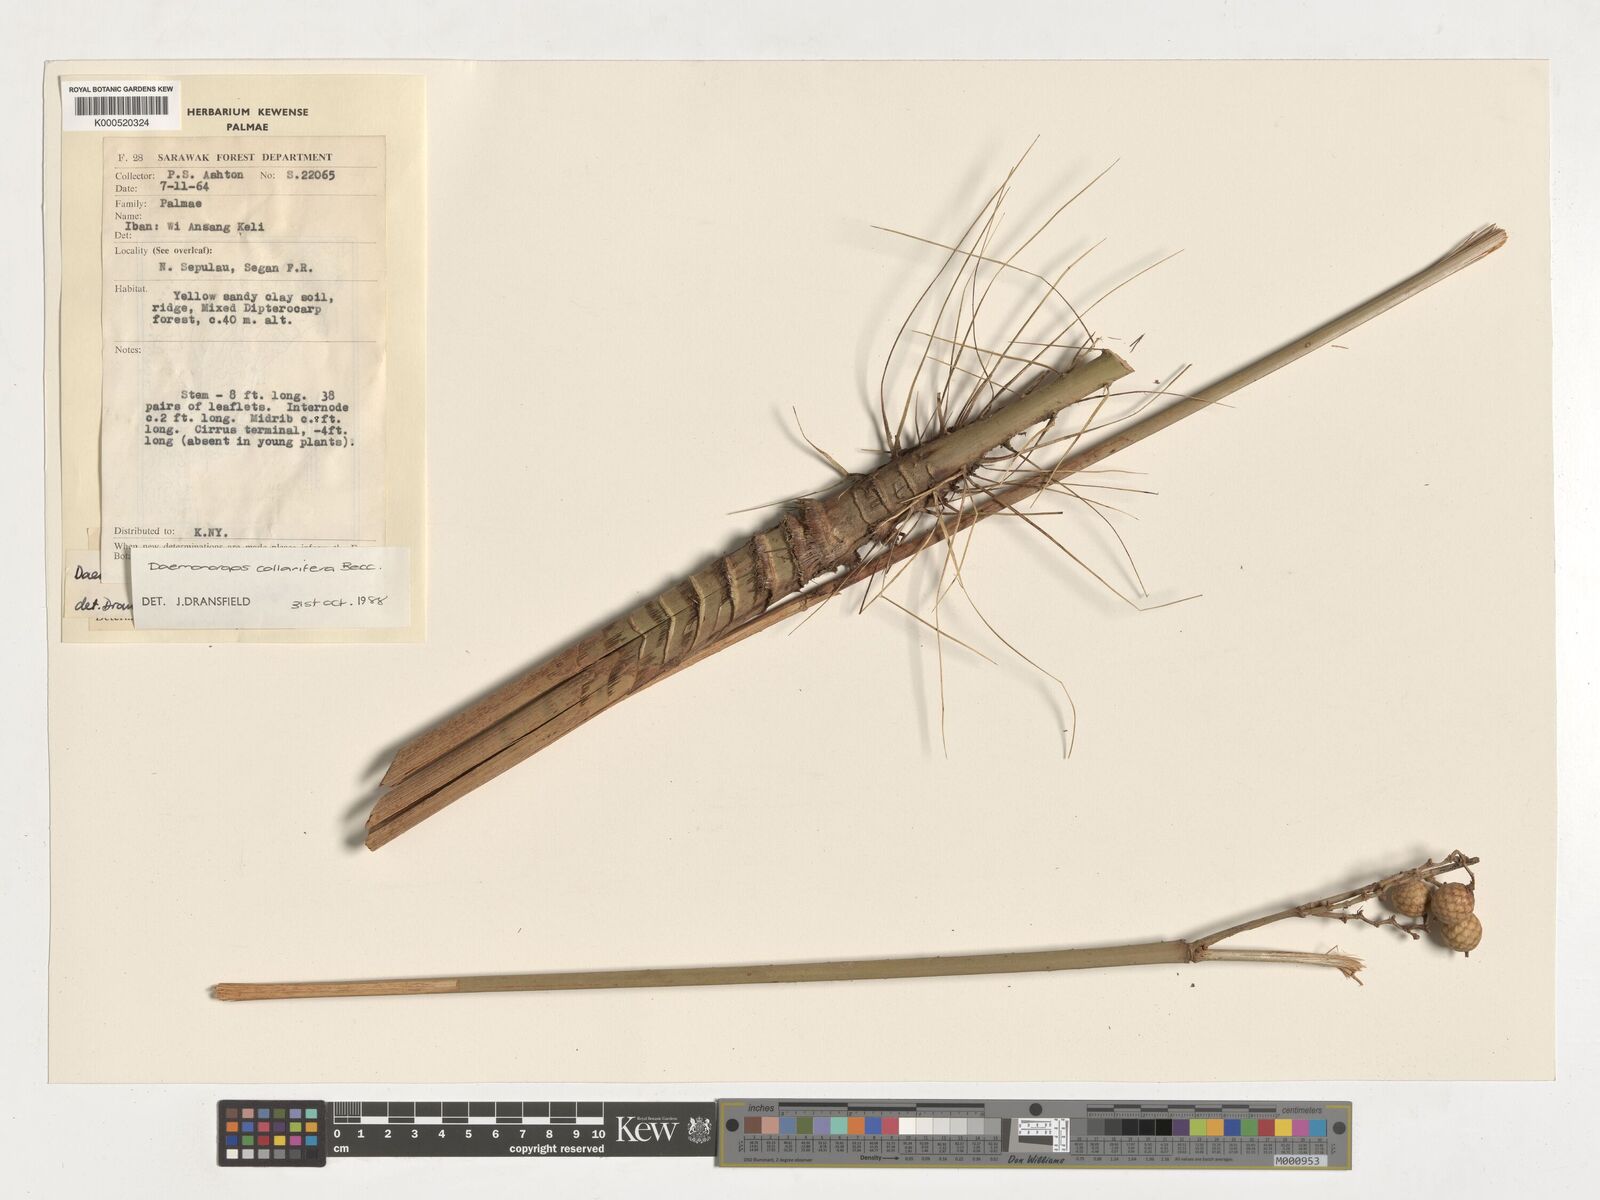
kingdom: Plantae
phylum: Tracheophyta
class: Liliopsida
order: Arecales
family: Arecaceae
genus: Calamus
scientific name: Calamus geniculatus
